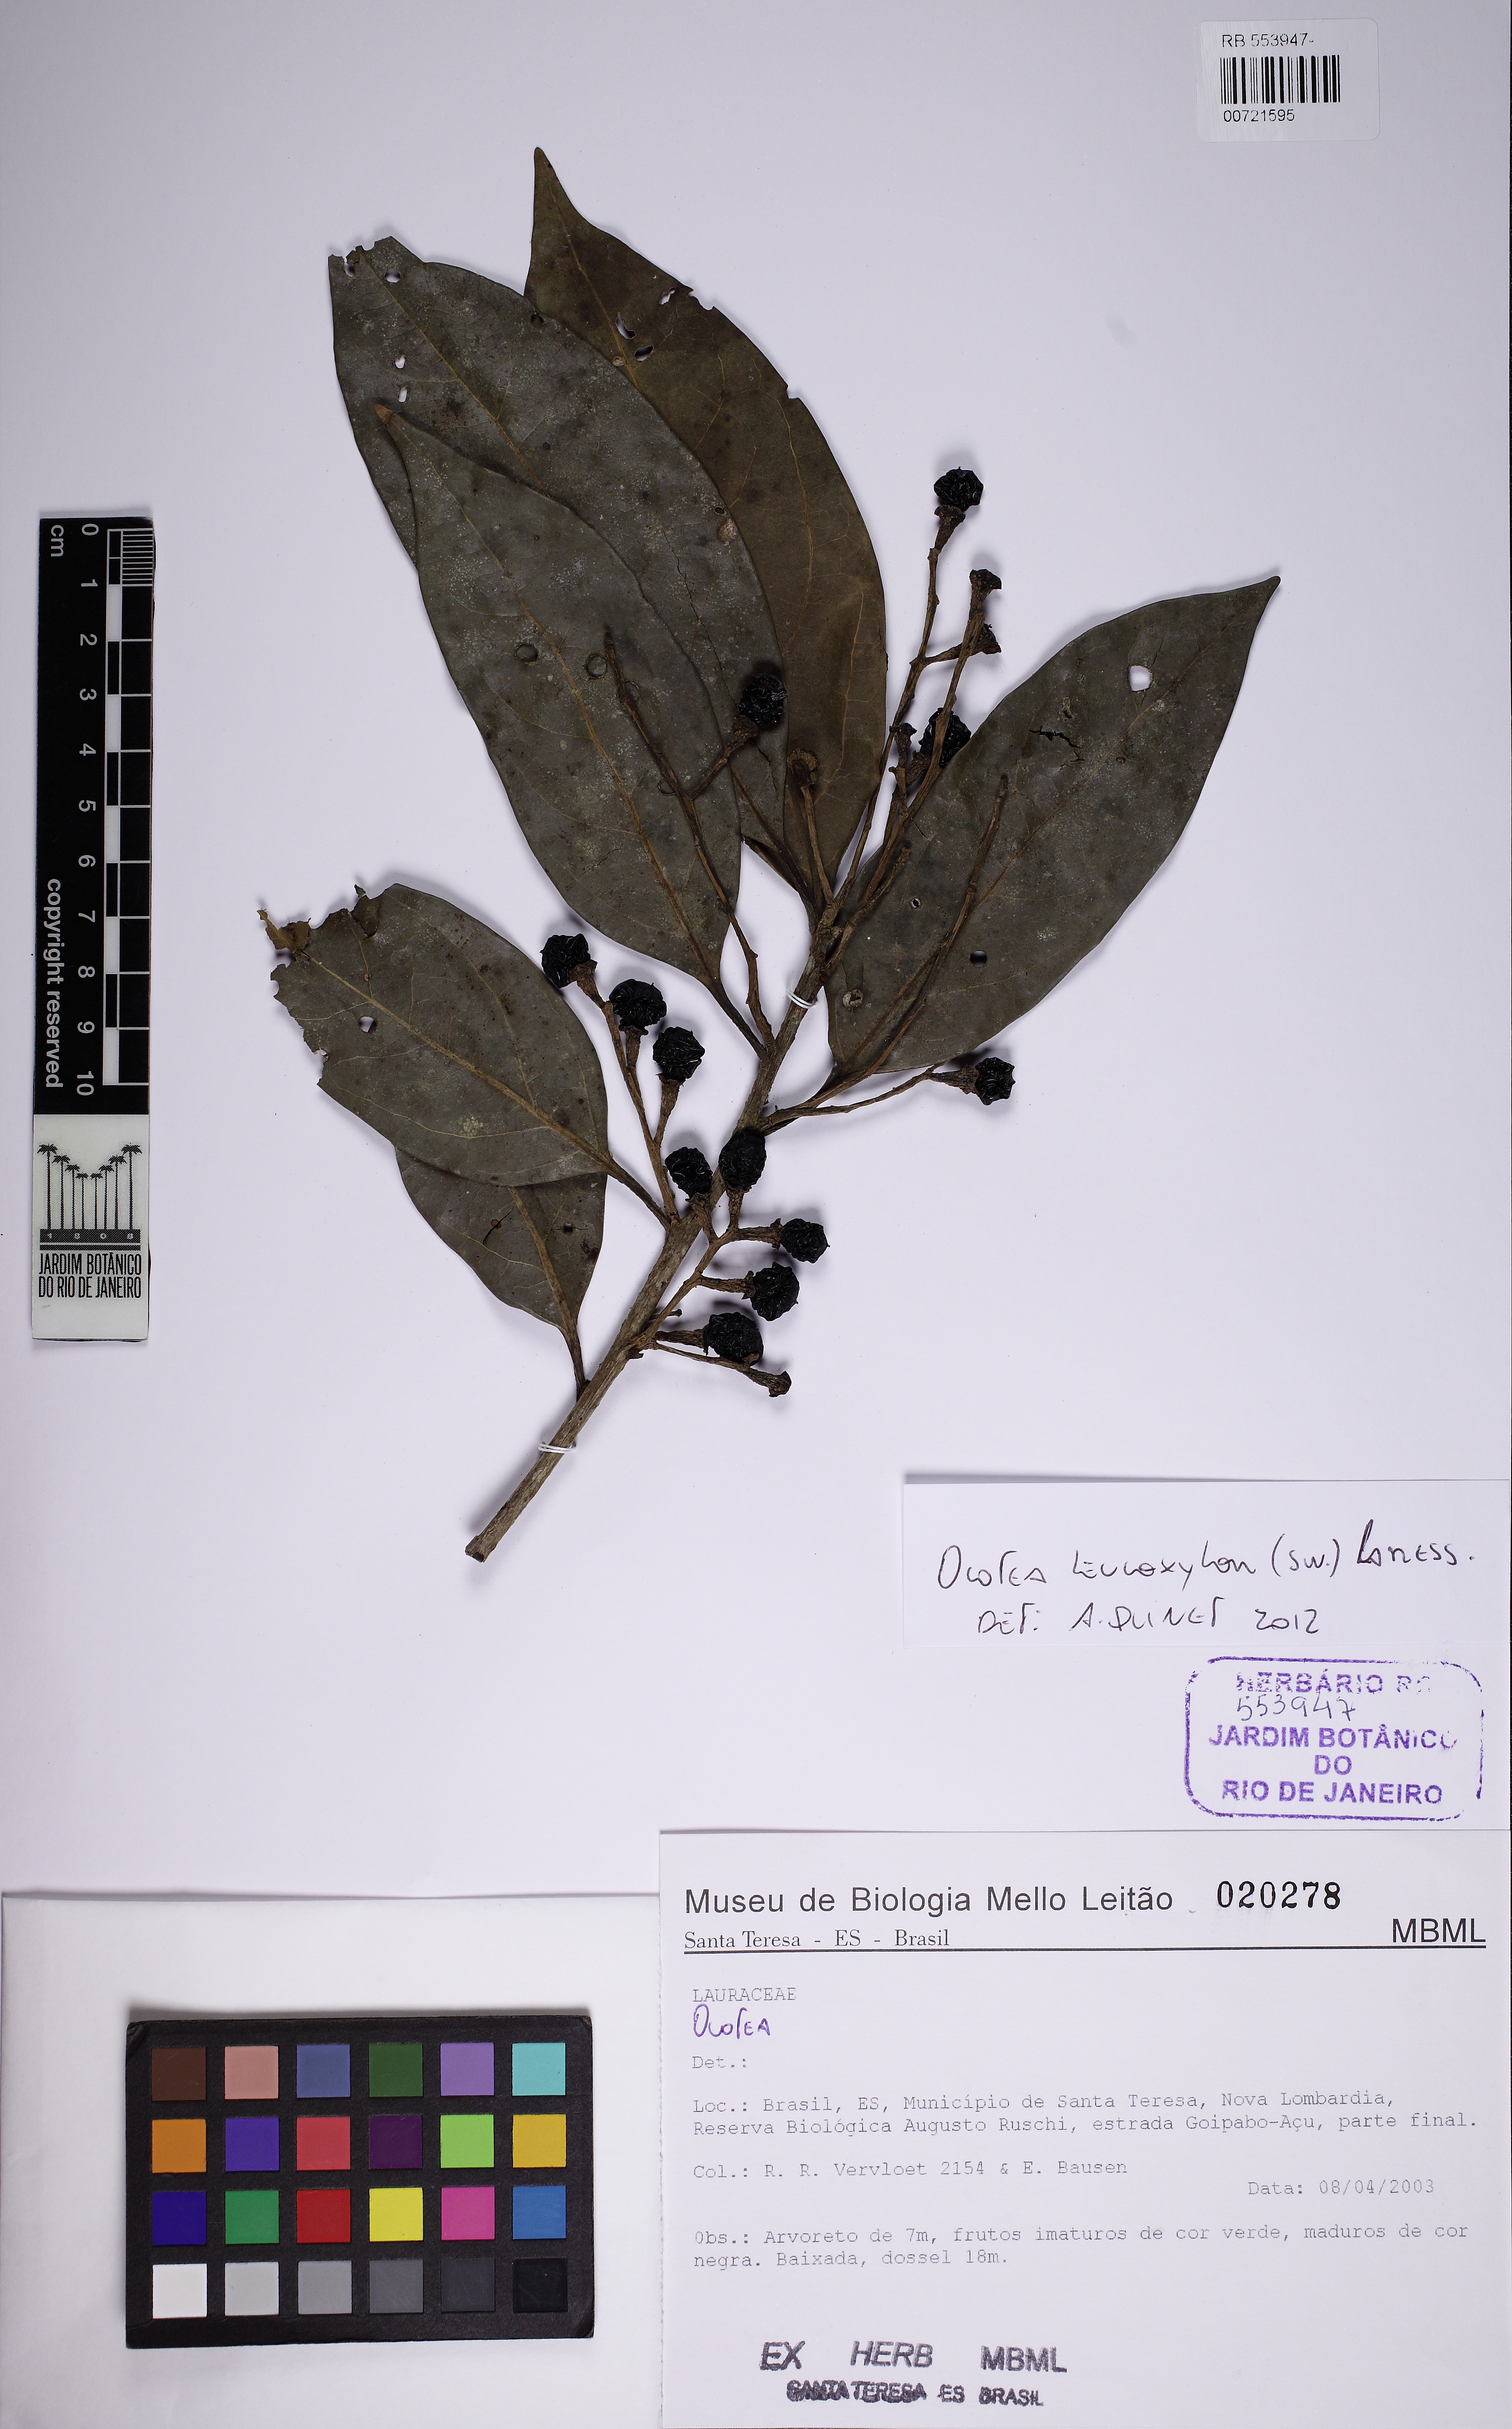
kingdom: Plantae
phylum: Tracheophyta
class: Magnoliopsida
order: Laurales
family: Lauraceae
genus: Ocotea
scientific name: Ocotea leucoxylon
